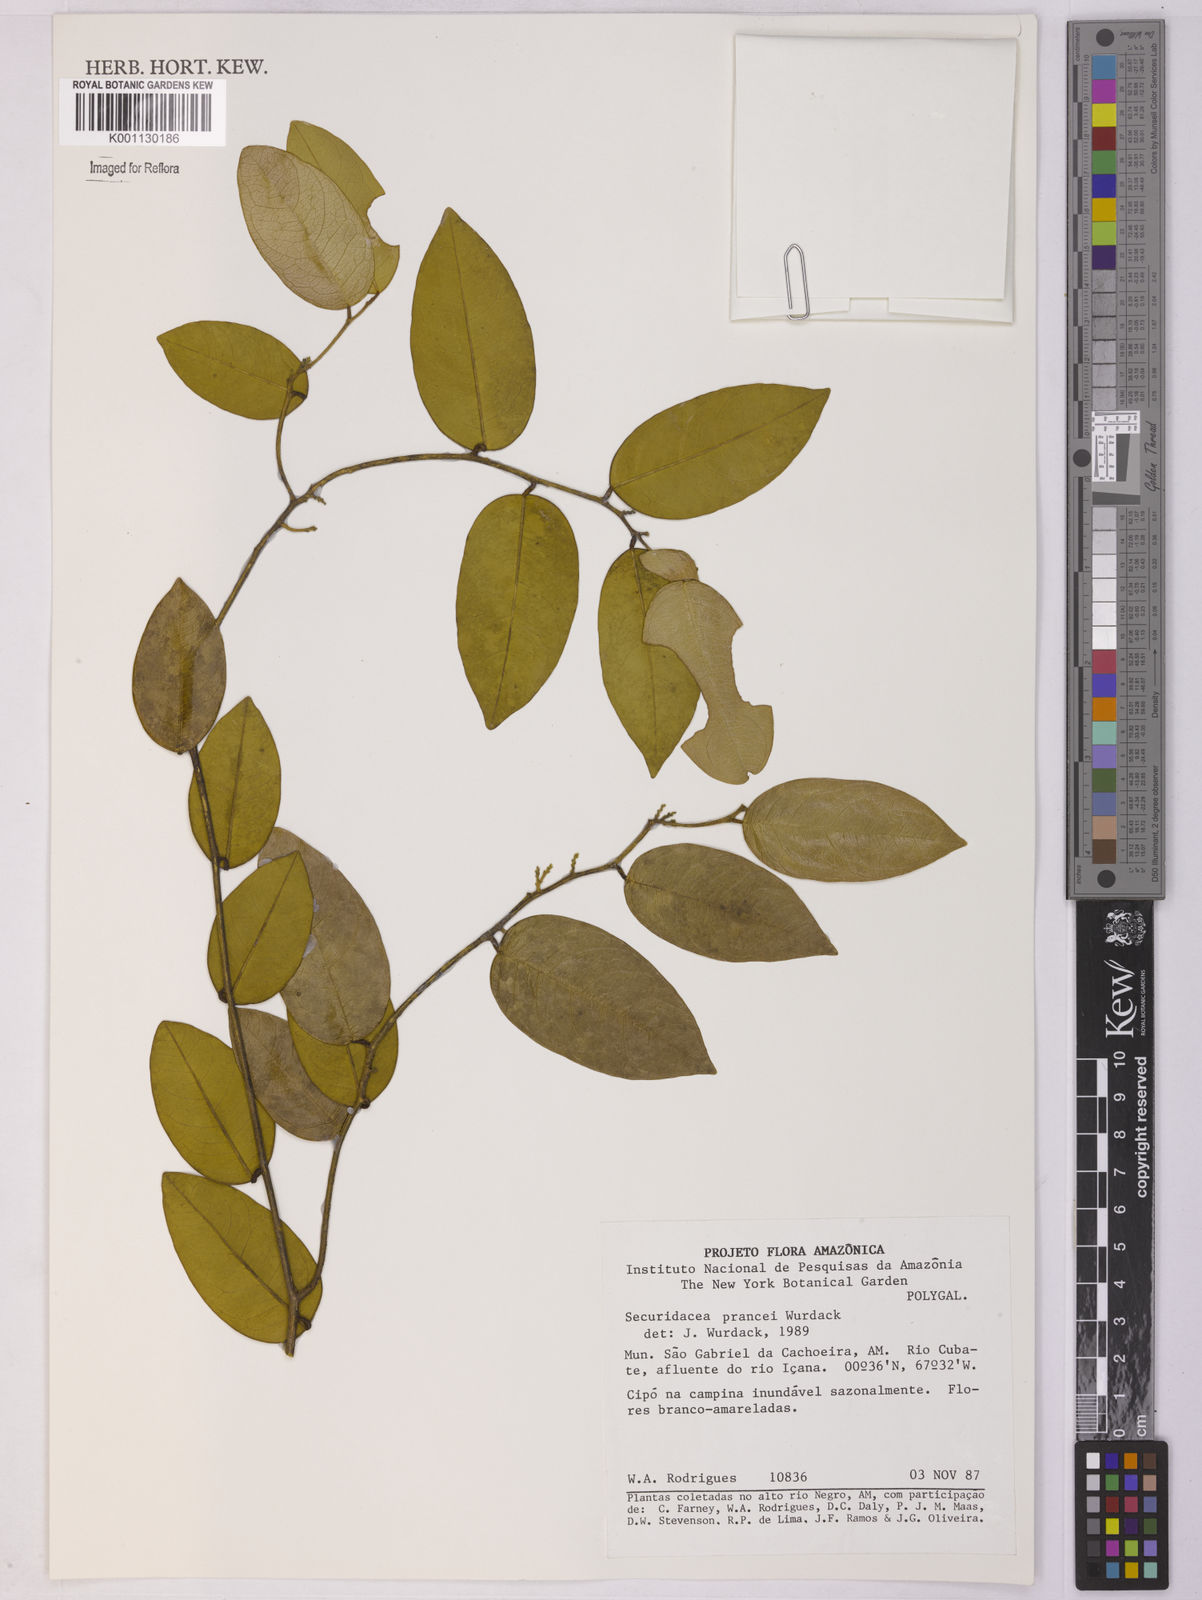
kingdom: Plantae
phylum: Tracheophyta
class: Magnoliopsida
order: Fabales
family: Polygalaceae
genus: Securidaca
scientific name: Securidaca prancei
